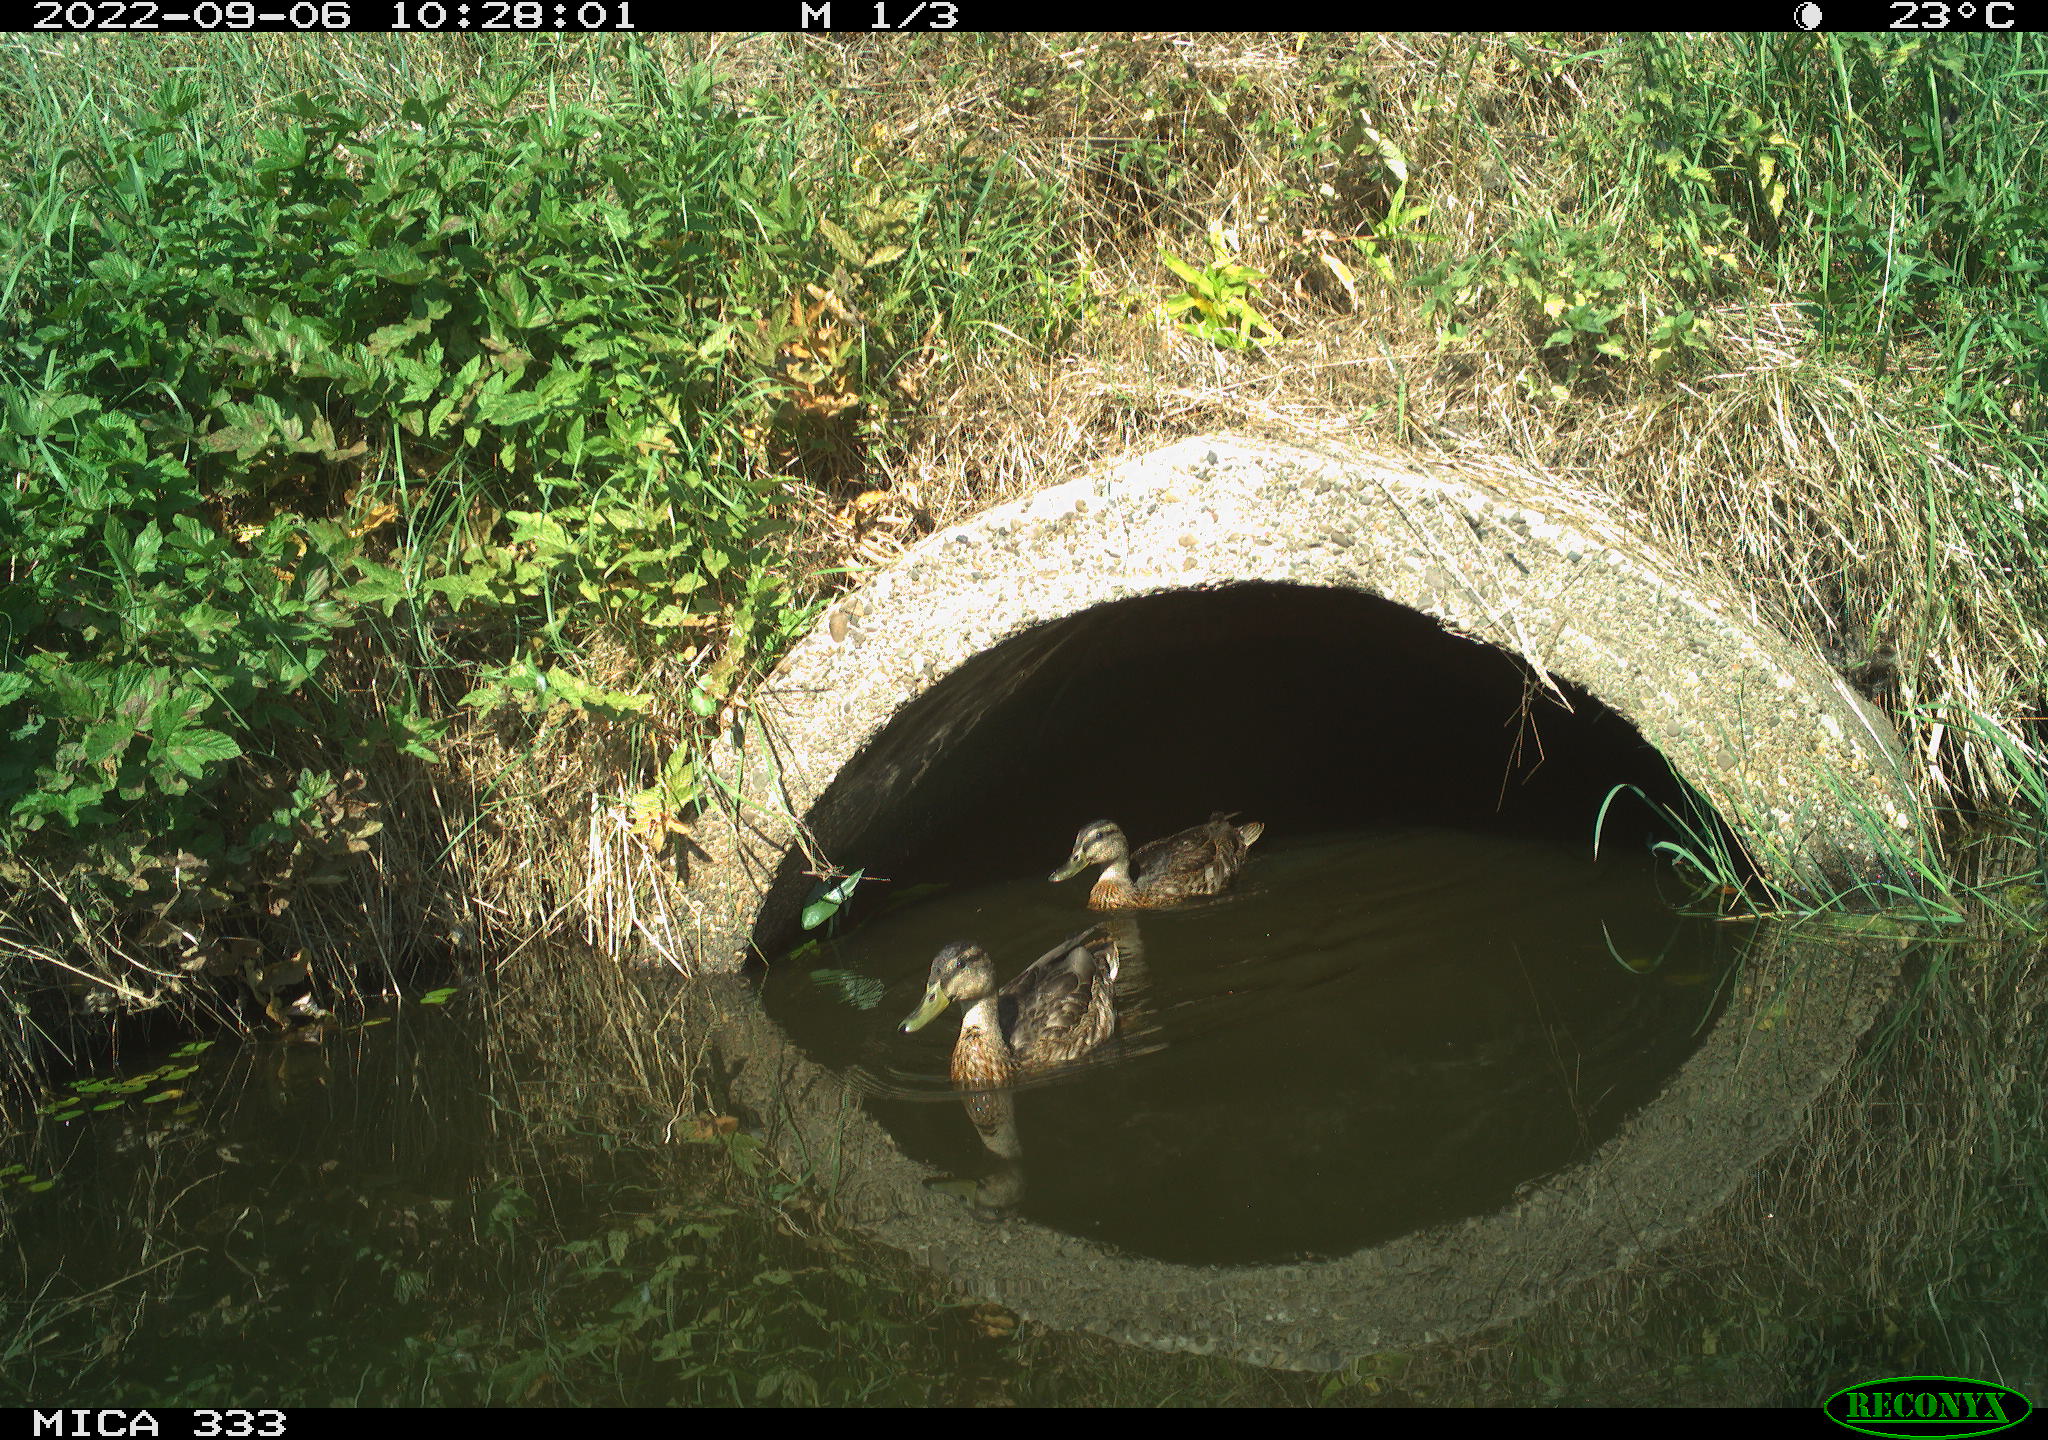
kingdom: Animalia
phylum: Chordata
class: Aves
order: Anseriformes
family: Anatidae
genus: Anas
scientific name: Anas platyrhynchos
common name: Mallard
